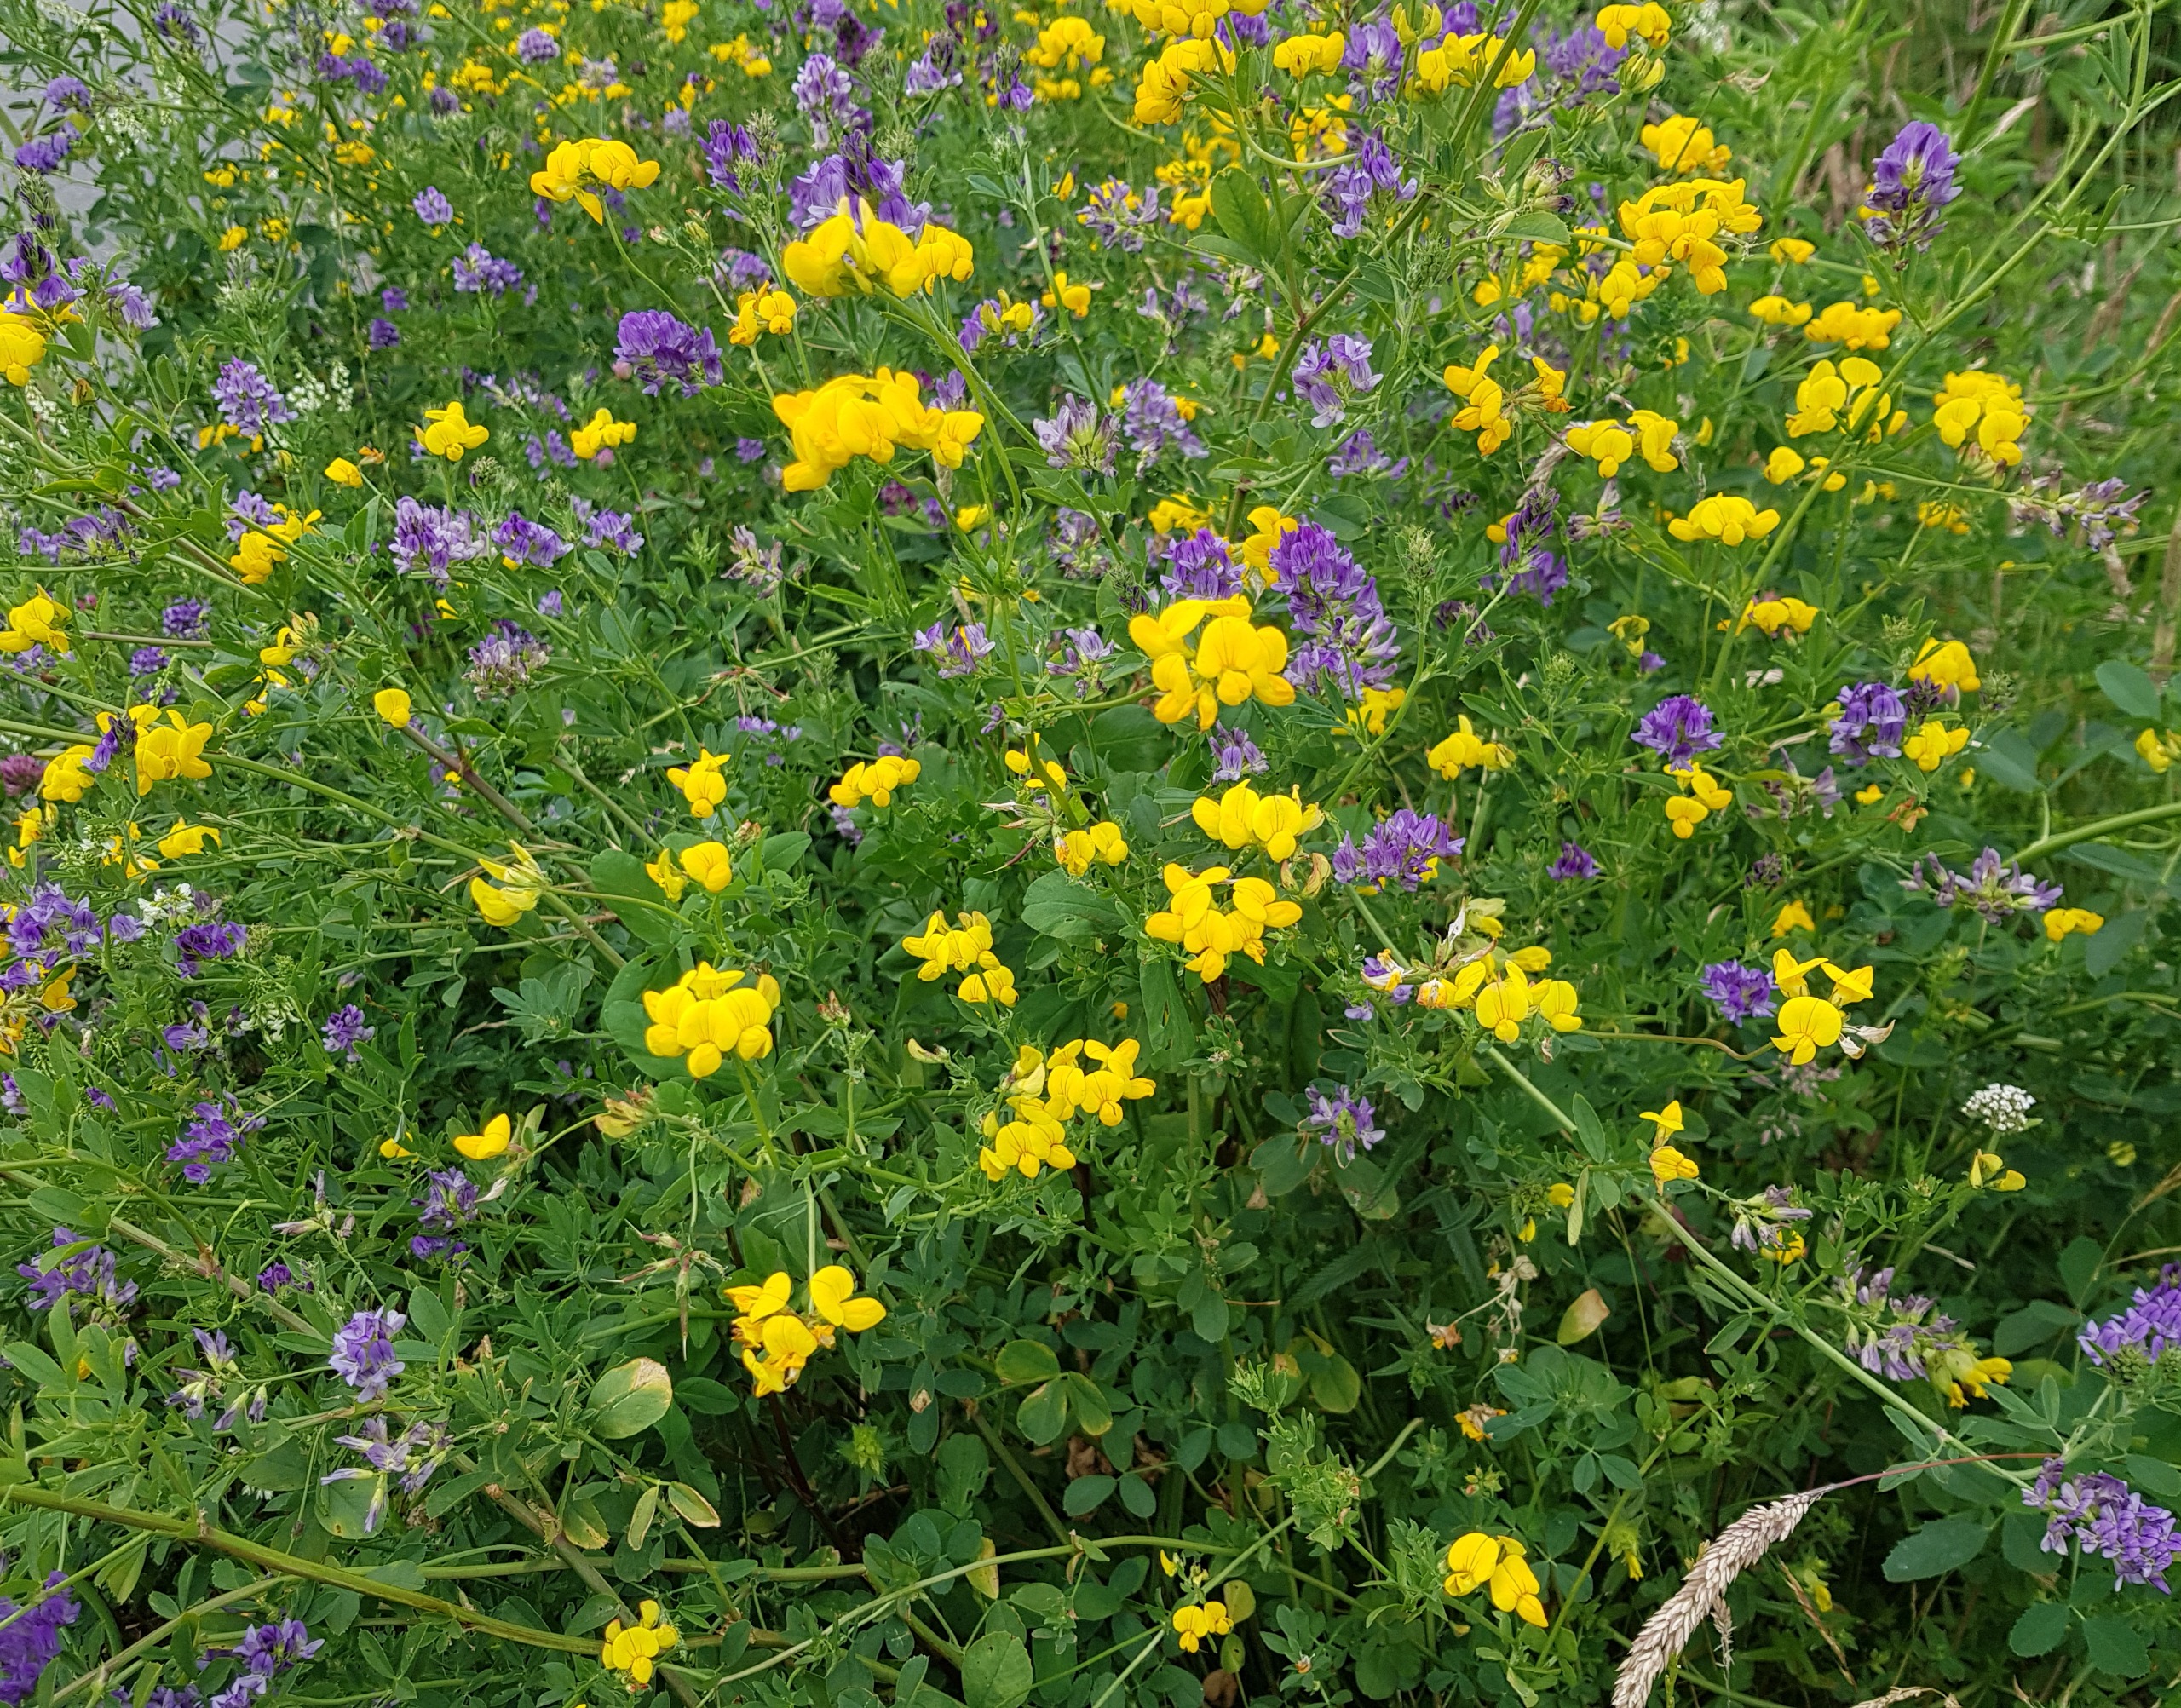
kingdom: Plantae
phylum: Tracheophyta
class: Magnoliopsida
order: Fabales
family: Fabaceae
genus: Lotus
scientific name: Lotus corniculatus
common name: Almindelig kællingetand
